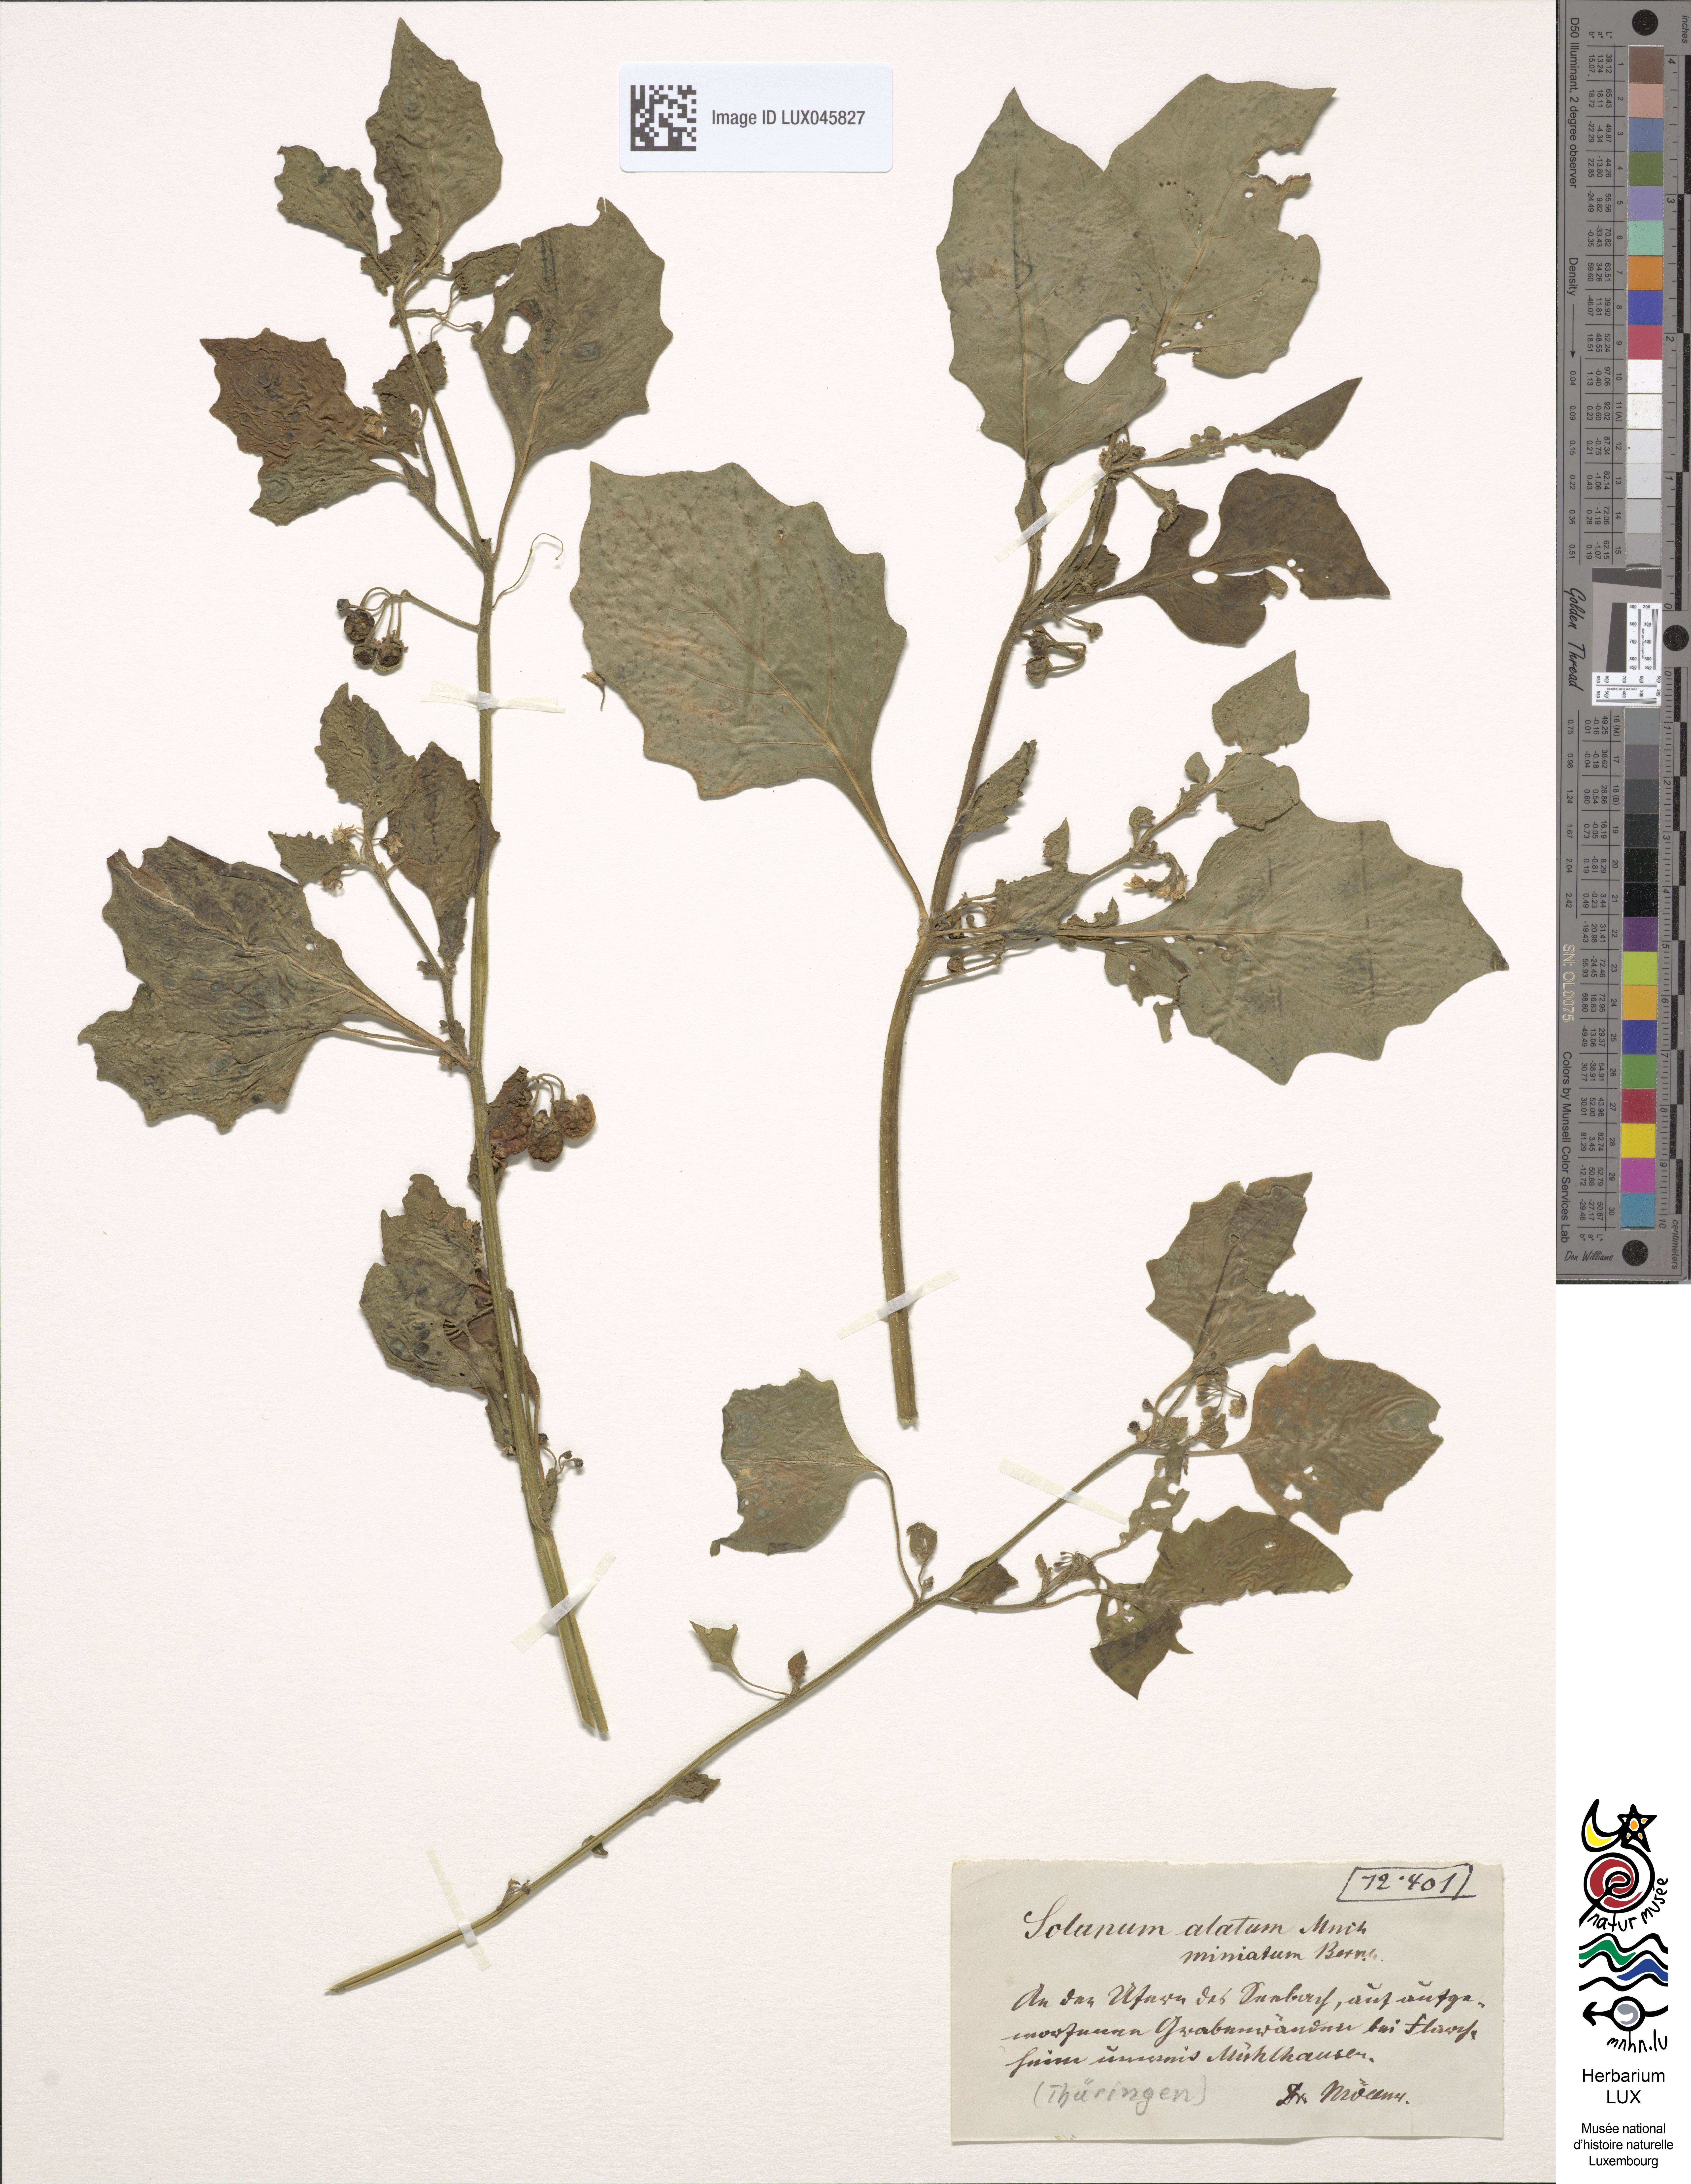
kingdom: Plantae
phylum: Tracheophyta
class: Magnoliopsida
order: Solanales
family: Solanaceae
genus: Solanum
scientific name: Solanum alatum
